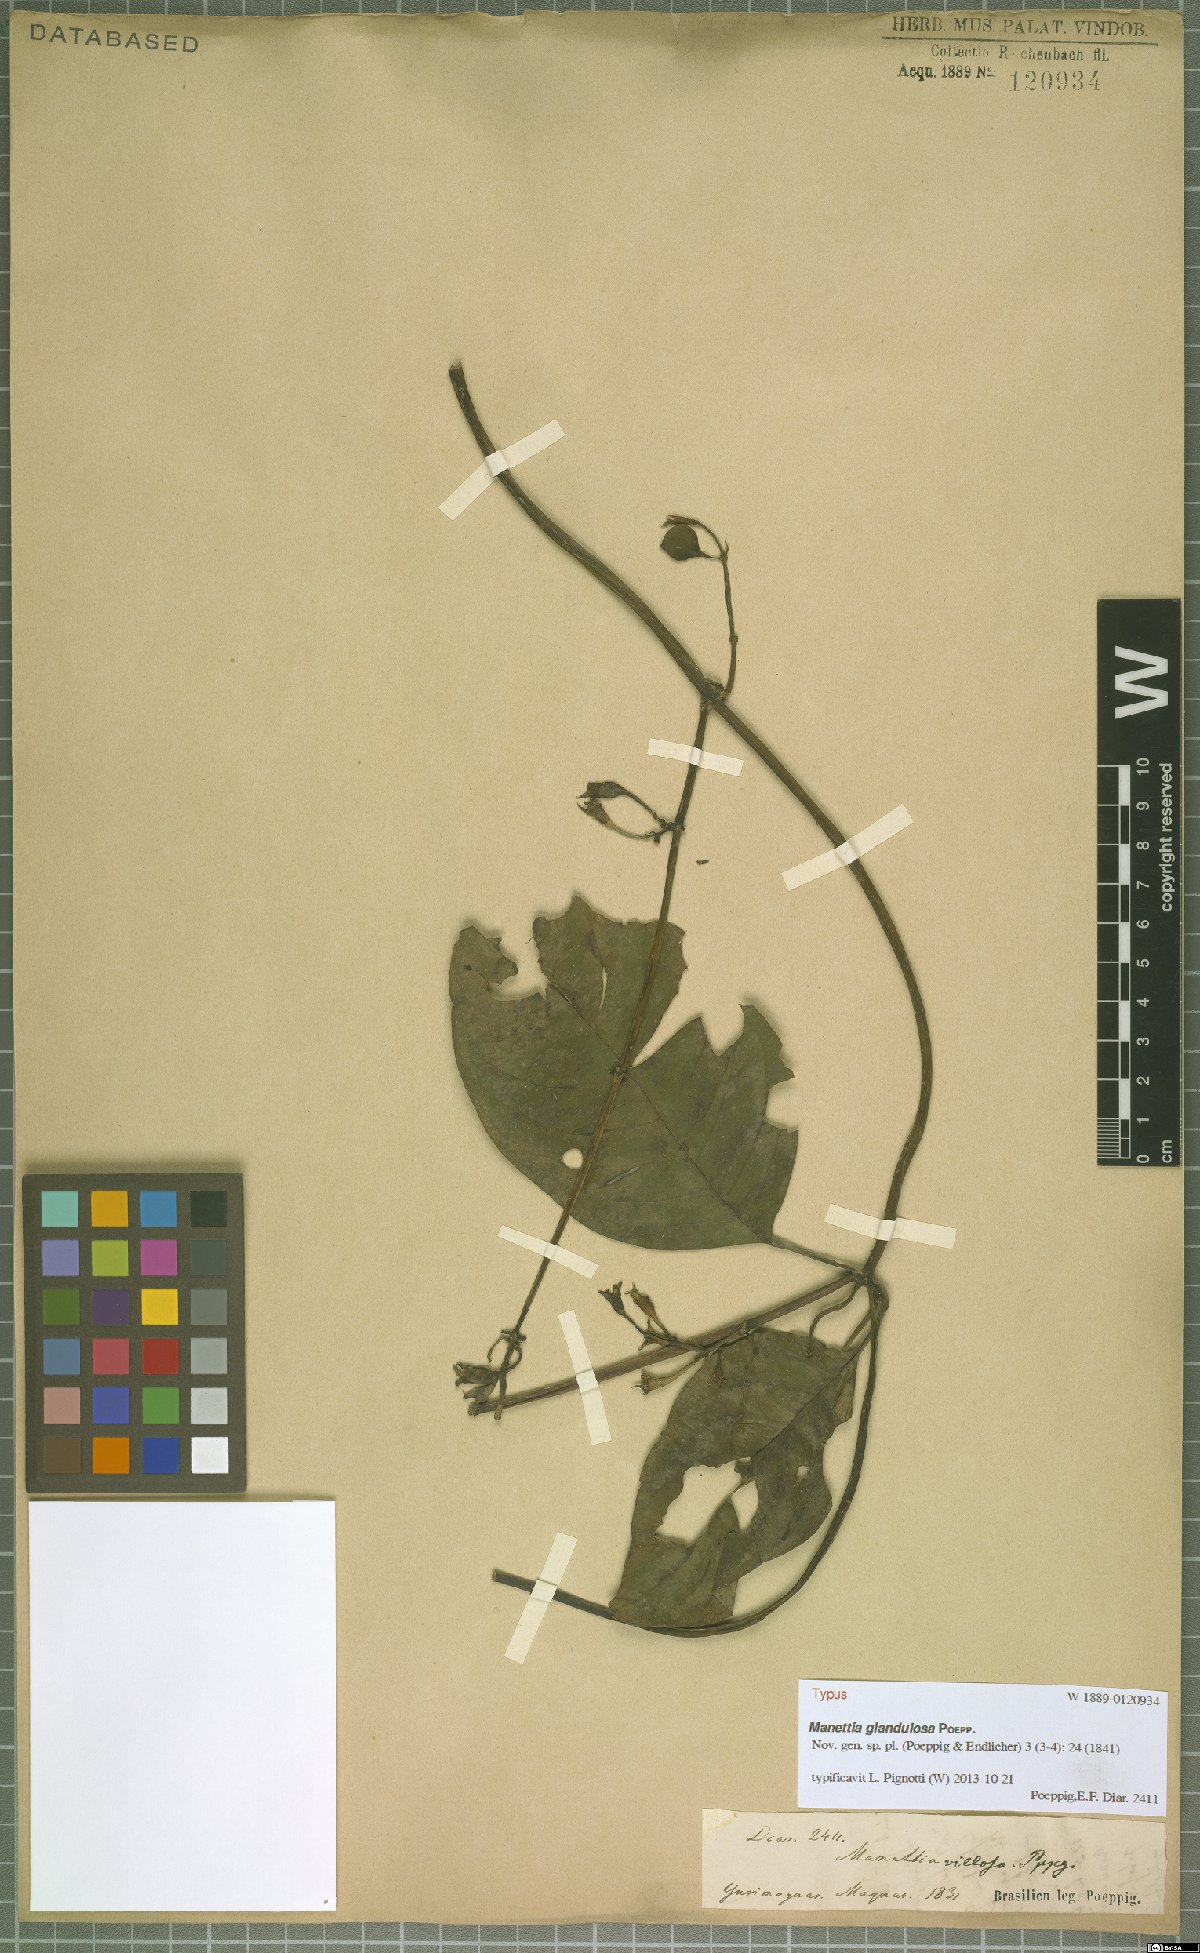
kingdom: Plantae
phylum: Tracheophyta
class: Magnoliopsida
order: Gentianales
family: Rubiaceae
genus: Manettia
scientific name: Manettia glandulosa
